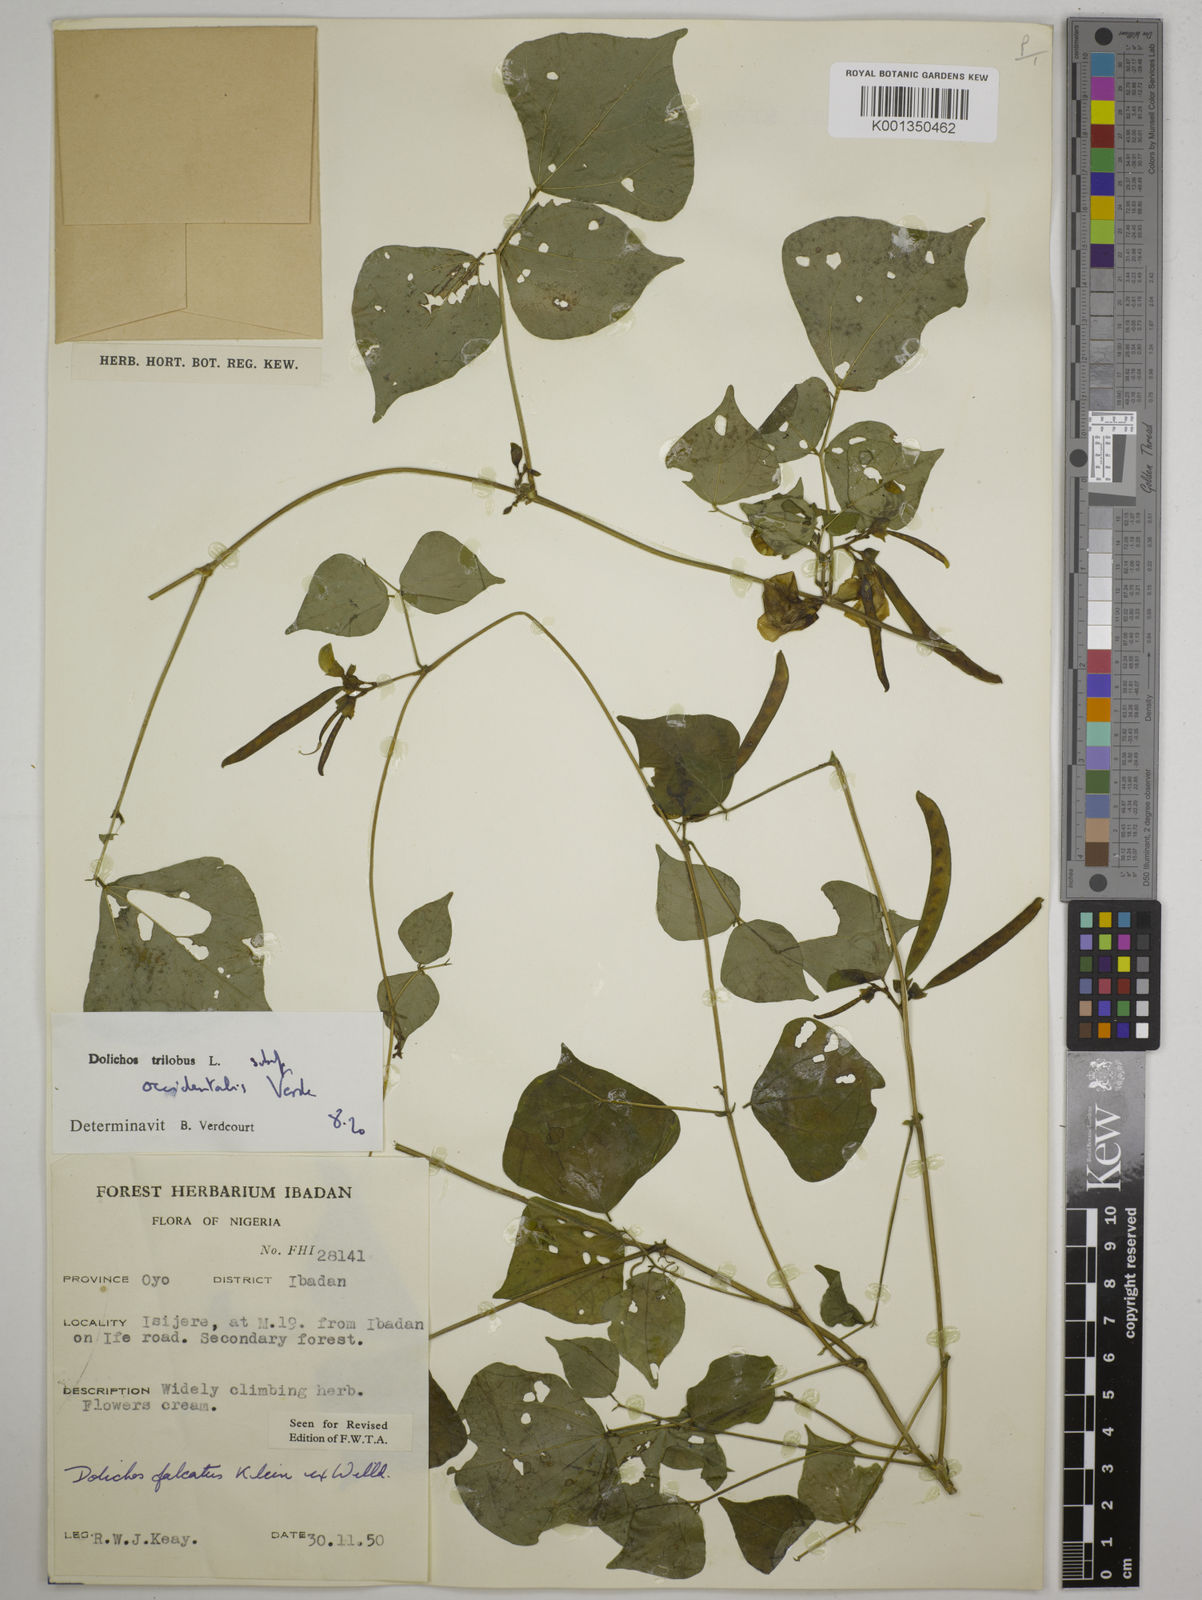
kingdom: Plantae
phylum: Tracheophyta
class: Magnoliopsida
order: Fabales
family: Fabaceae
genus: Dolichos
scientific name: Dolichos
